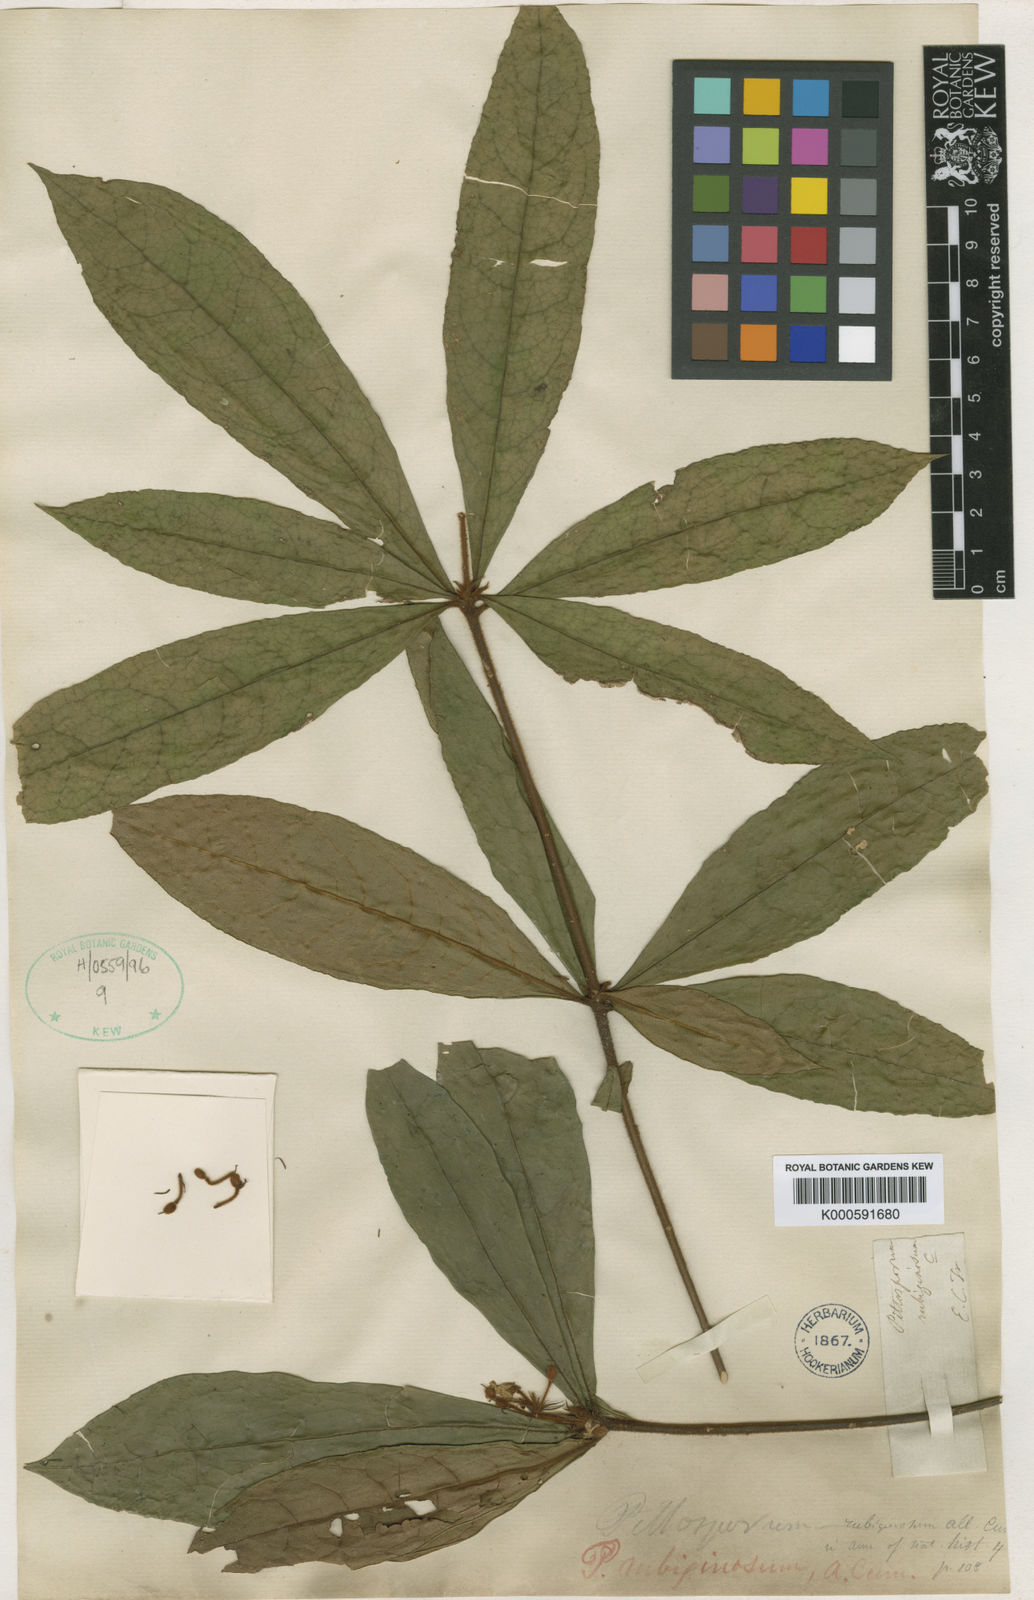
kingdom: Plantae
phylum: Tracheophyta
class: Magnoliopsida
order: Apiales
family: Pittosporaceae
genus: Pittosporum
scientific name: Pittosporum rubiginosum
